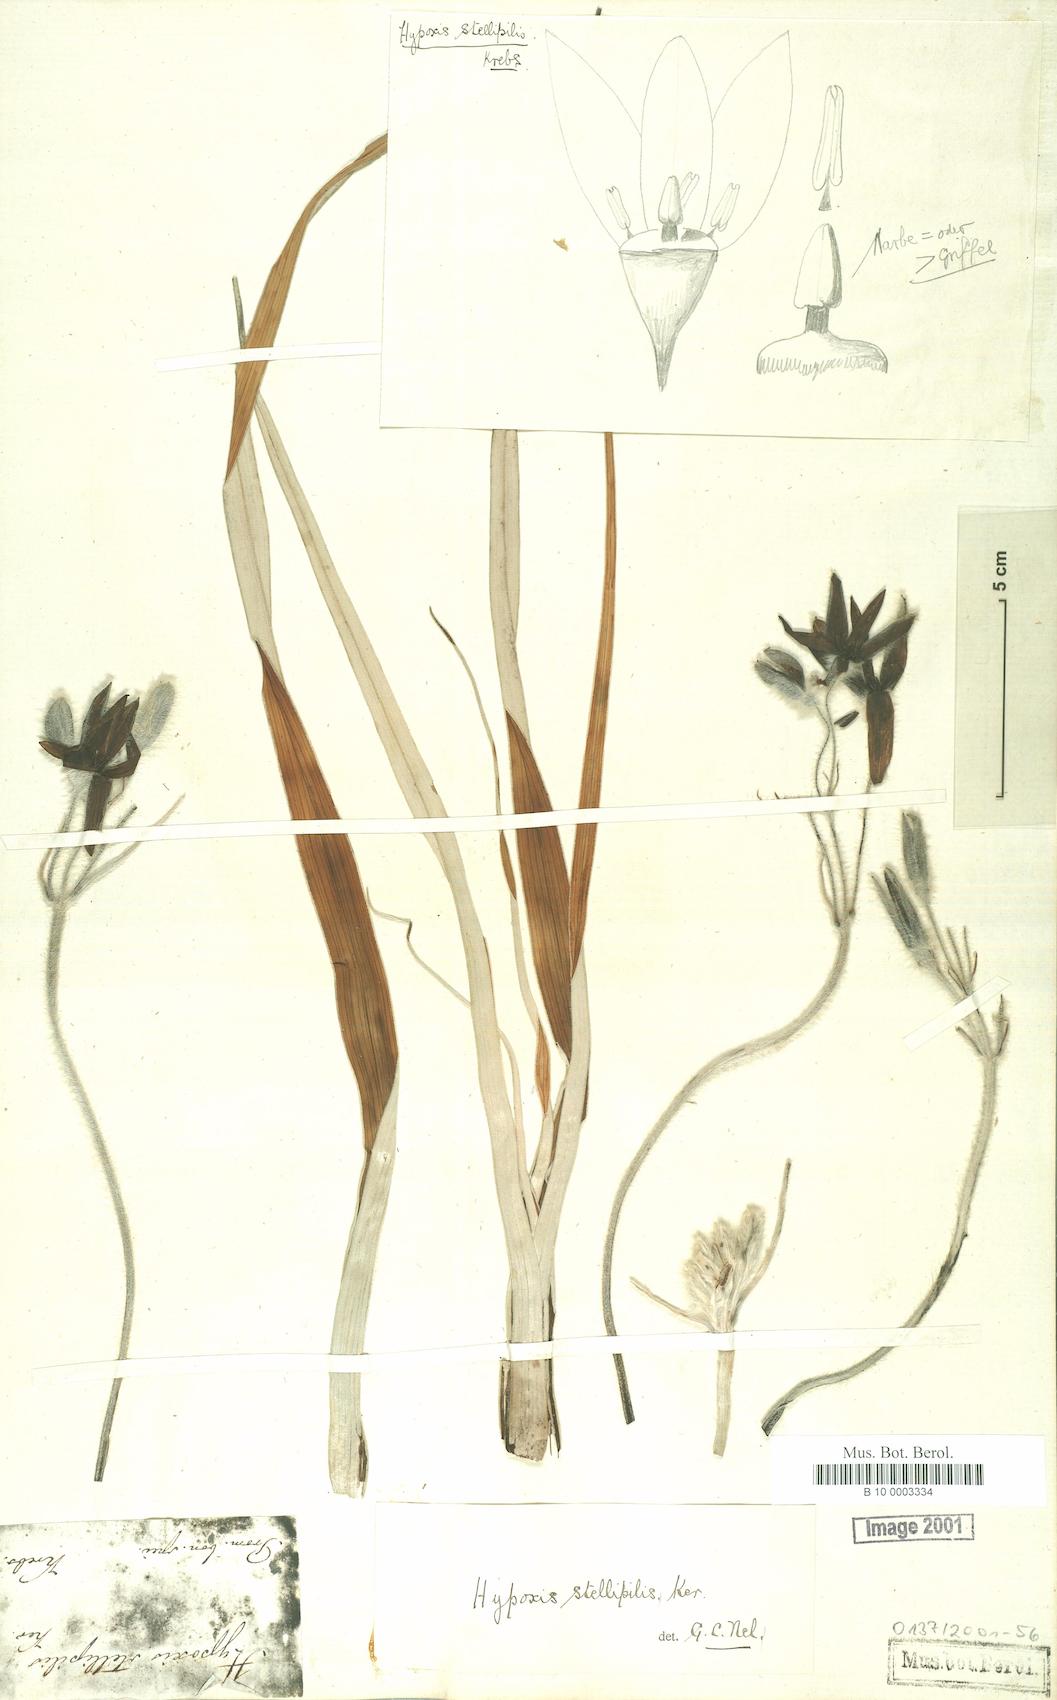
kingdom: Plantae
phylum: Tracheophyta
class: Liliopsida
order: Asparagales
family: Hypoxidaceae
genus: Hypoxis
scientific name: Hypoxis stellipilis
